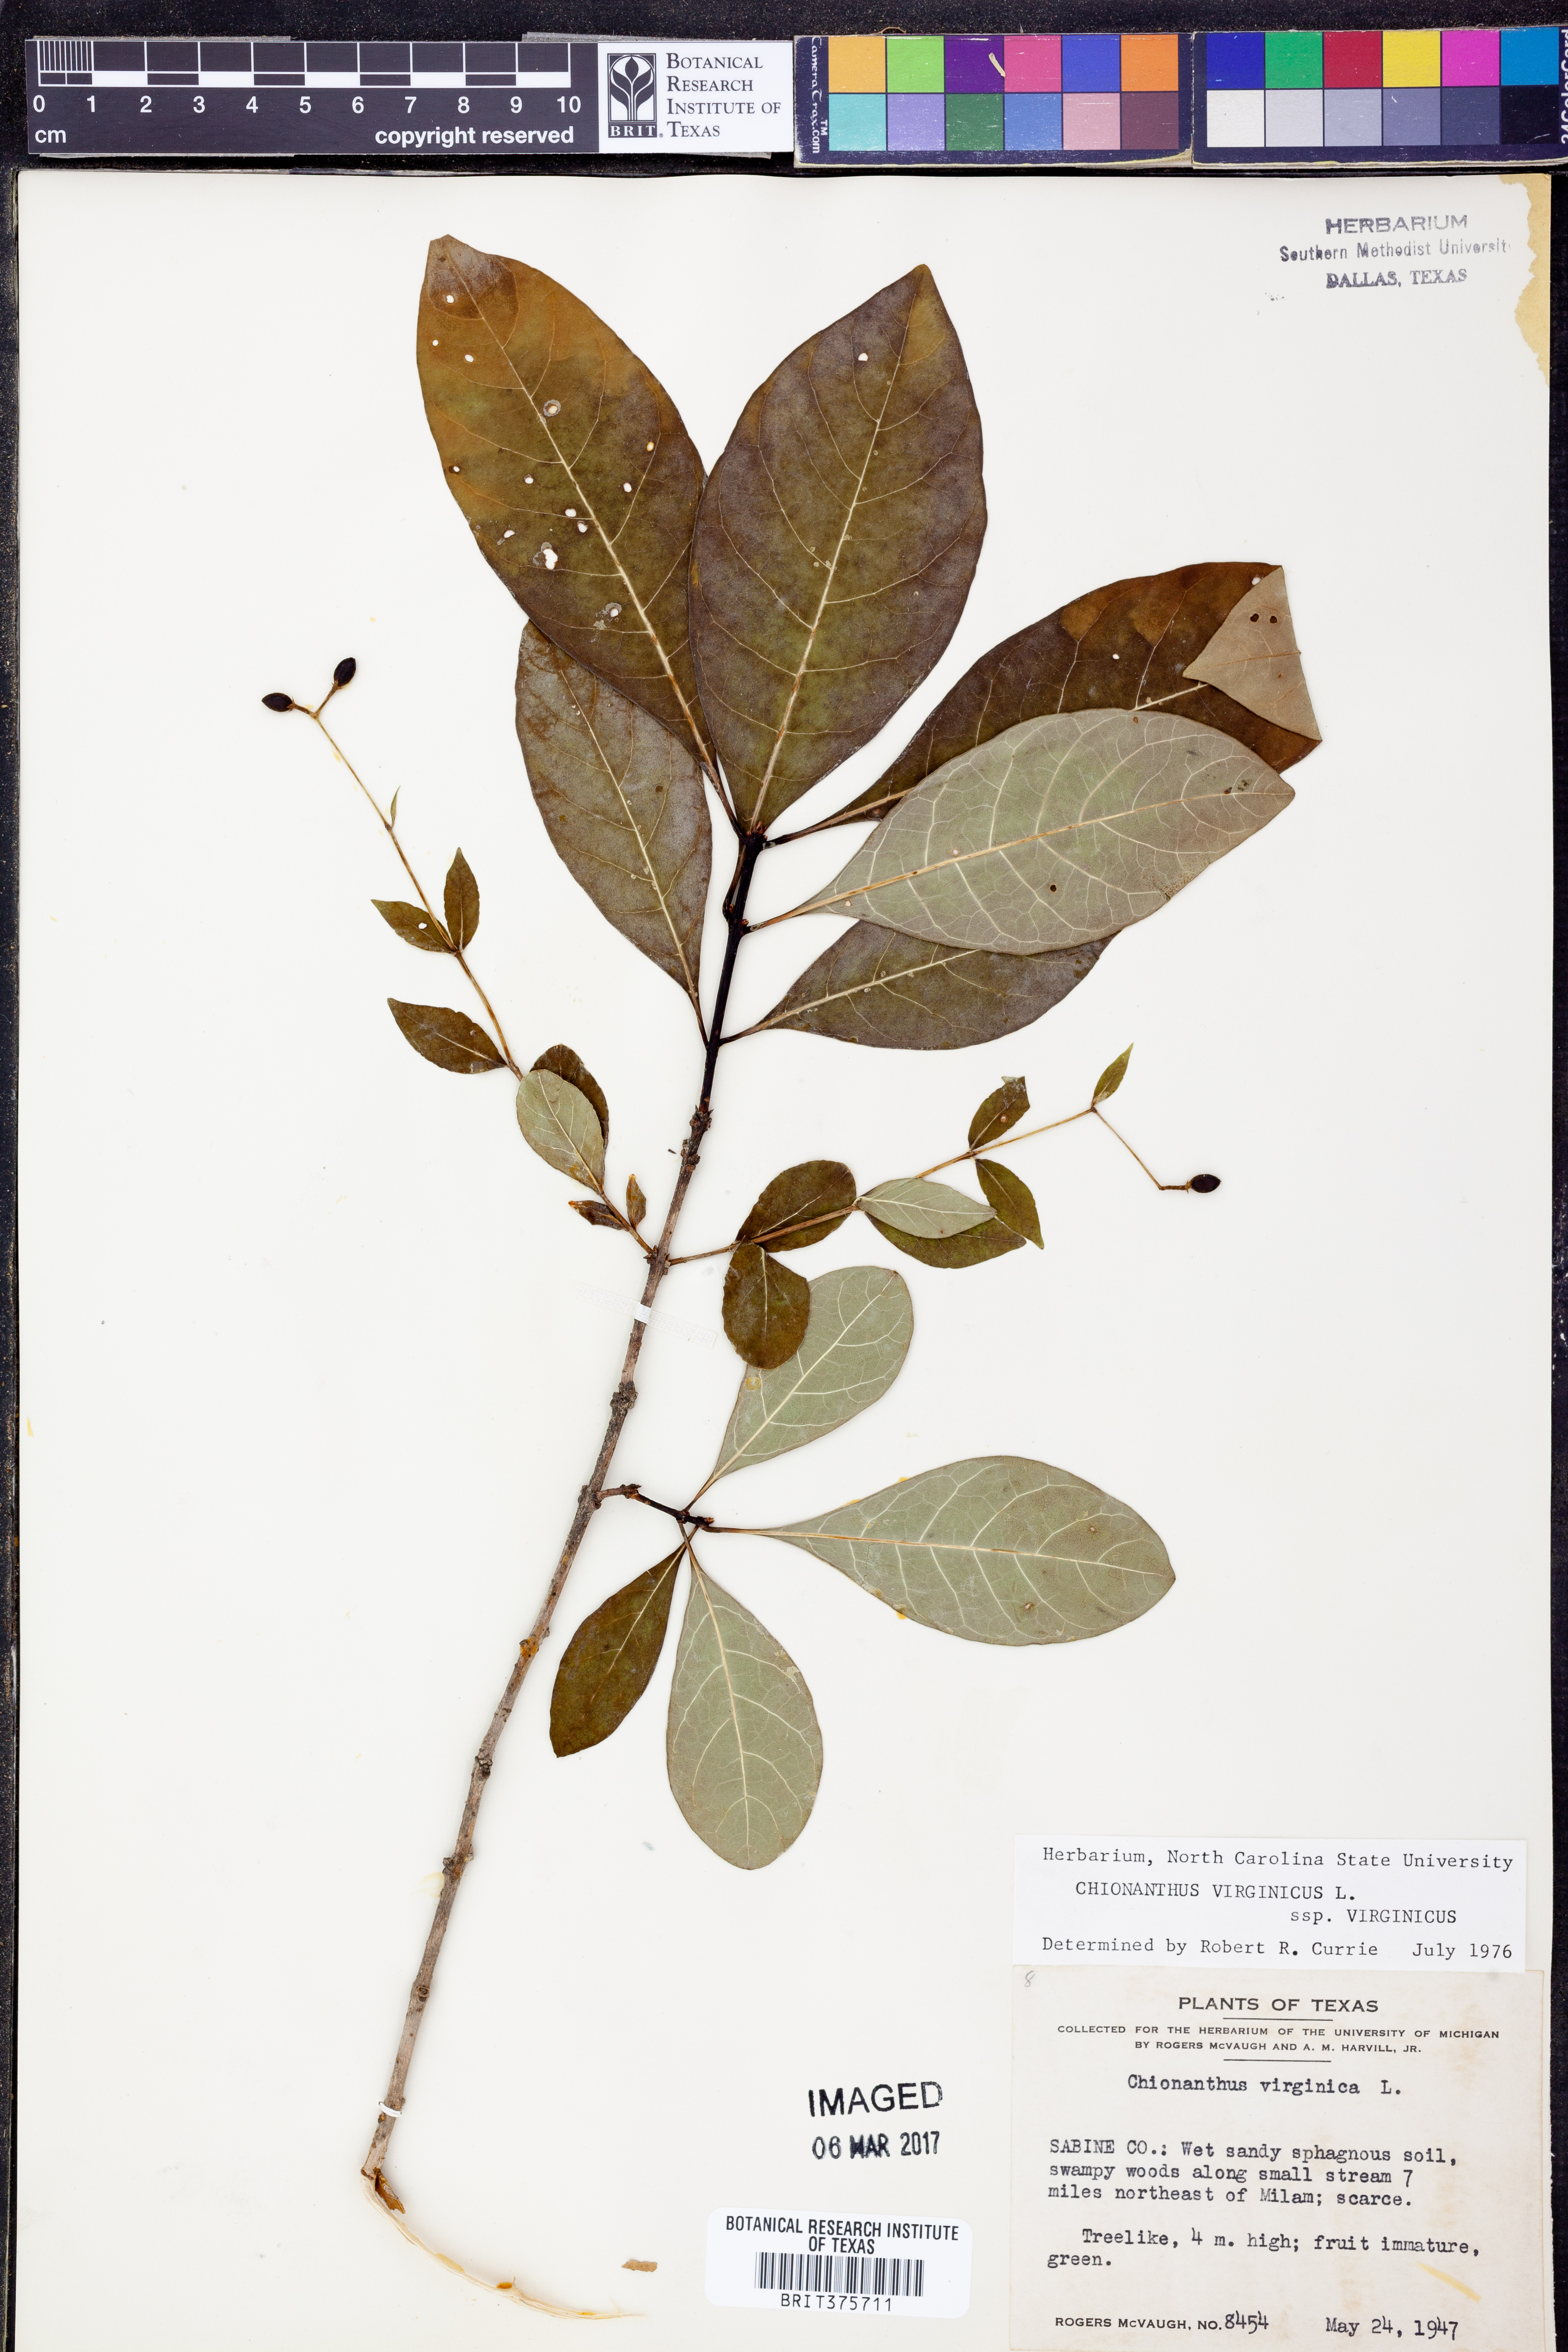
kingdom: Plantae
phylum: Tracheophyta
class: Magnoliopsida
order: Lamiales
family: Oleaceae
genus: Chionanthus
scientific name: Chionanthus virginicus
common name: American fringetree
